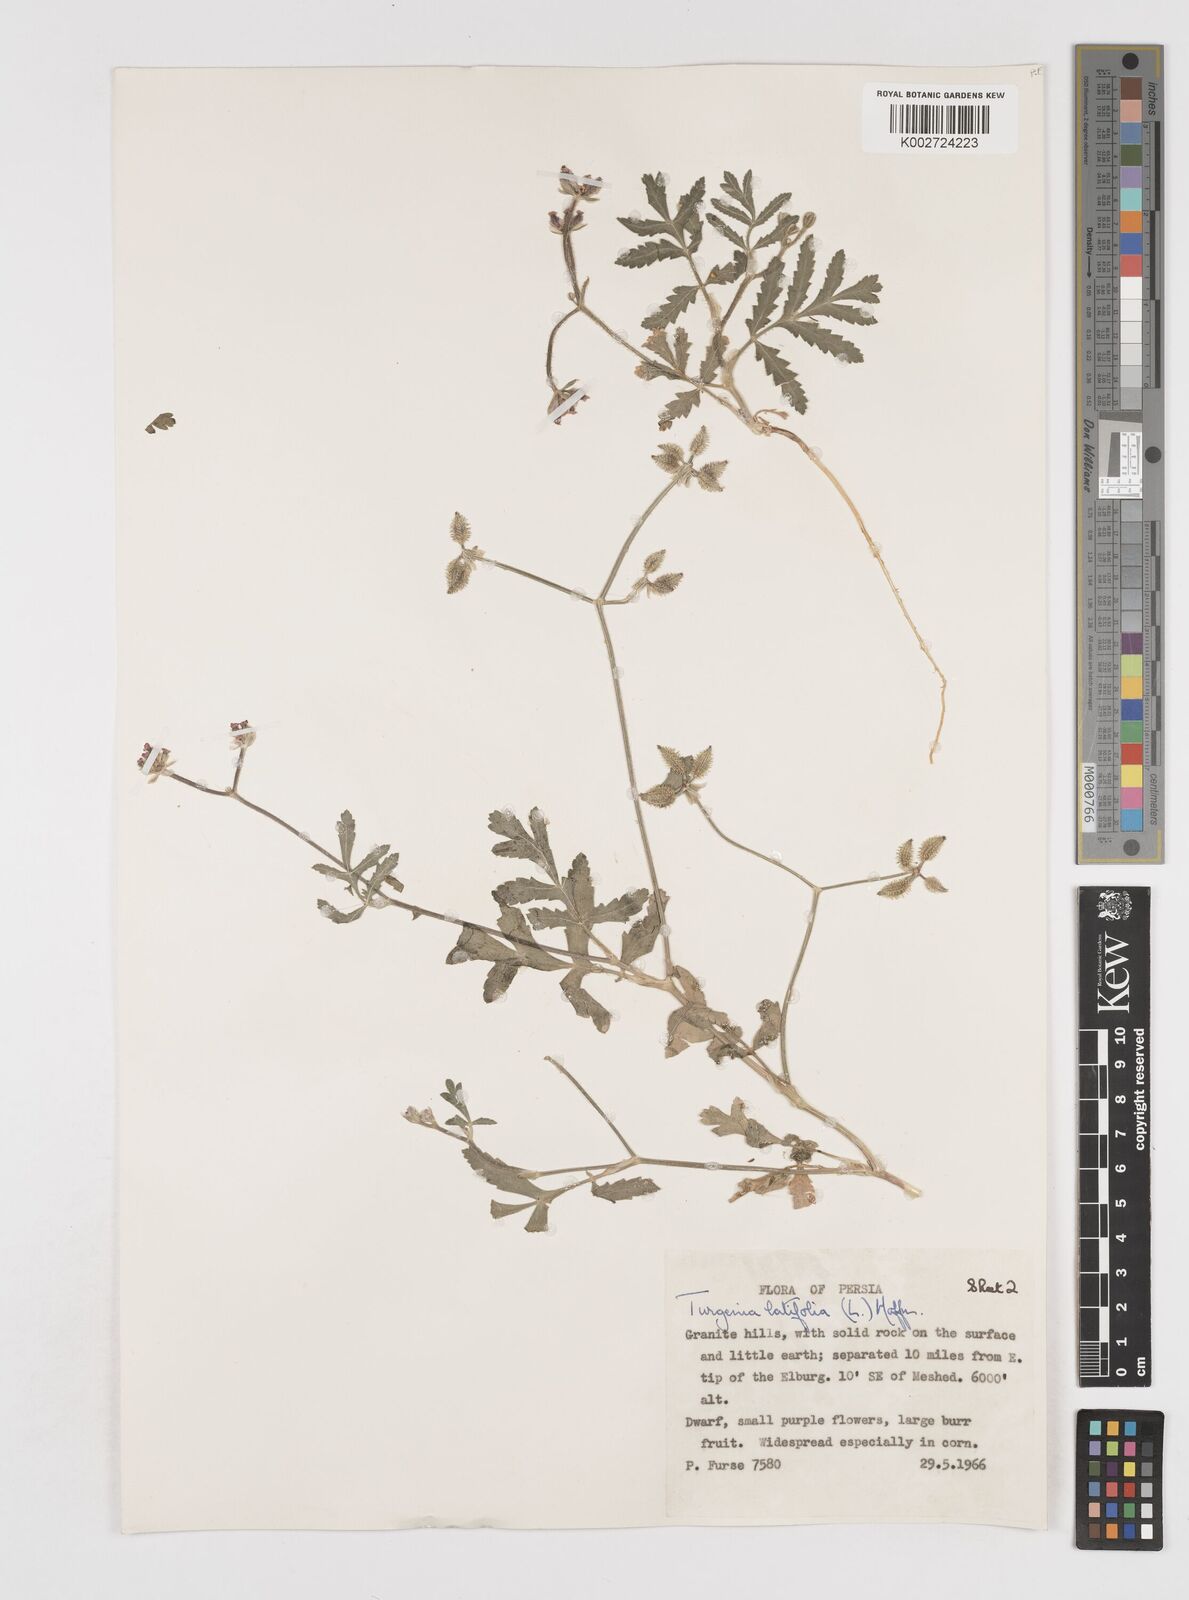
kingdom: Plantae
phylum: Tracheophyta
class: Magnoliopsida
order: Apiales
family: Apiaceae
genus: Turgenia
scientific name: Turgenia latifolia
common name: Greater bur-parsley
